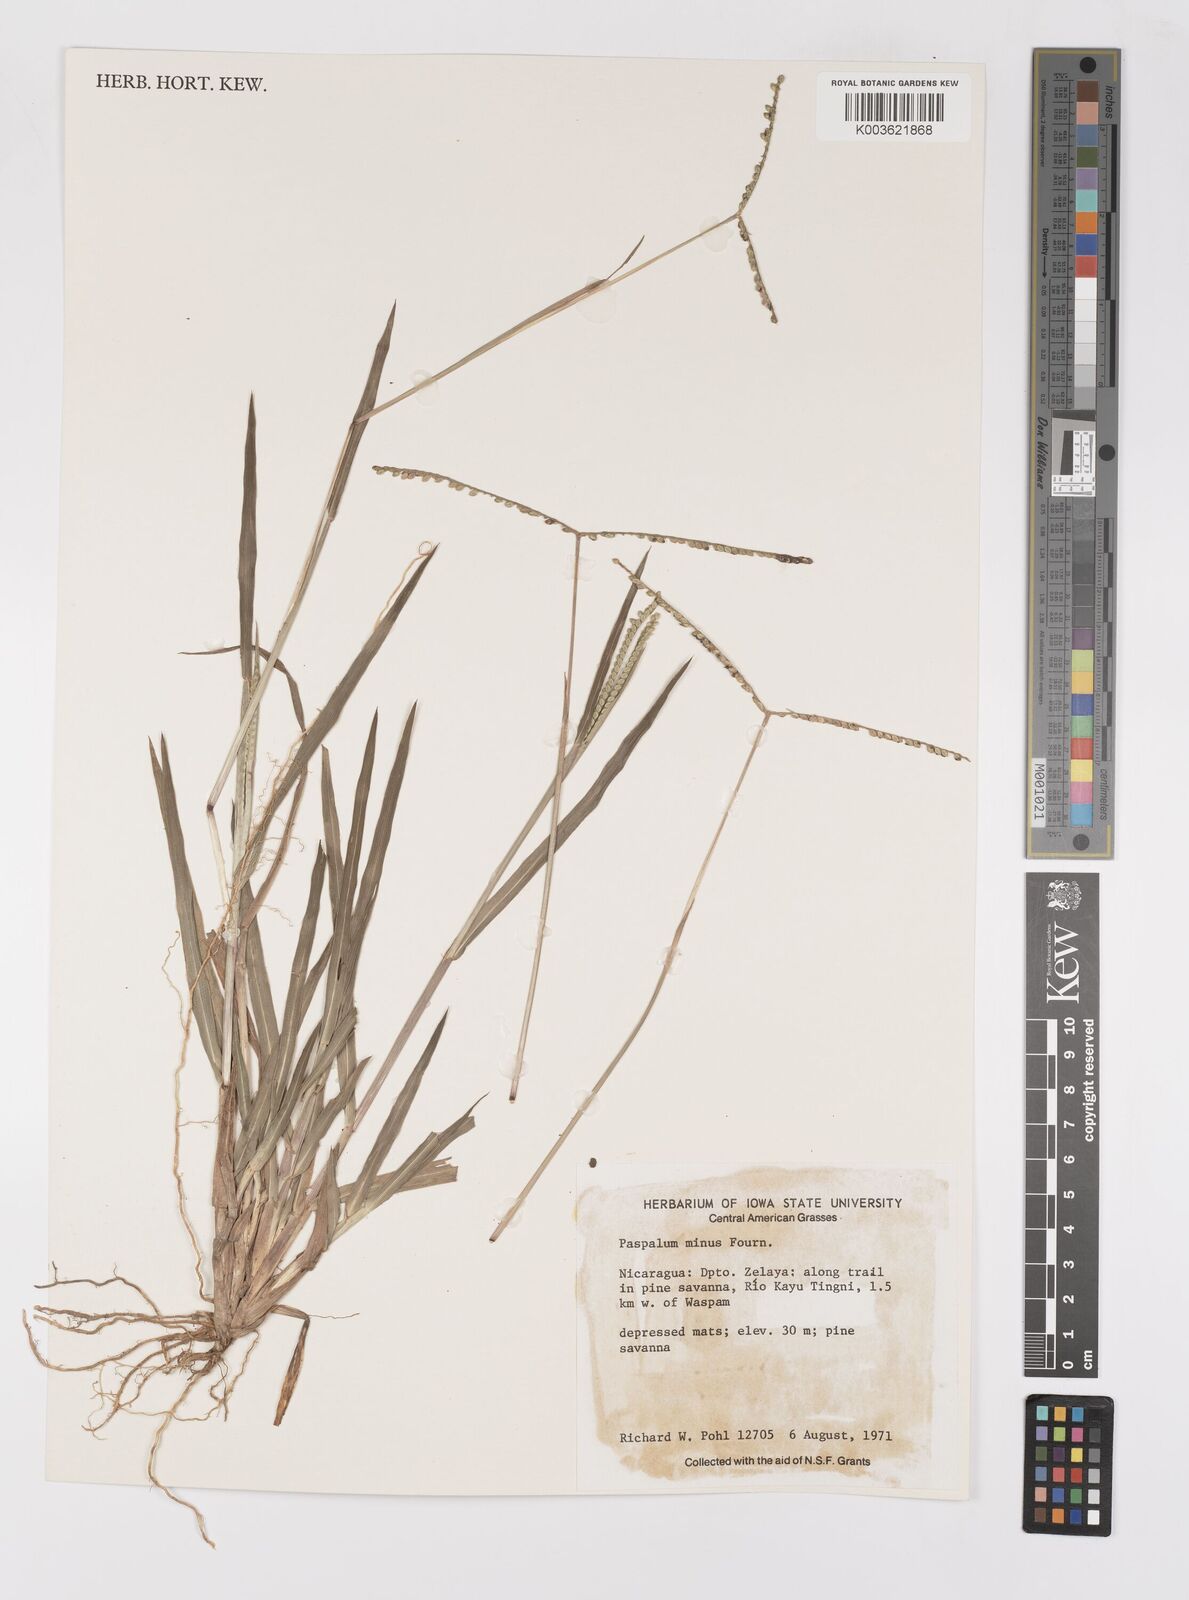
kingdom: Plantae
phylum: Tracheophyta
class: Liliopsida
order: Poales
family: Poaceae
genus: Paspalum
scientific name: Paspalum minus
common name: Matted paspalum
